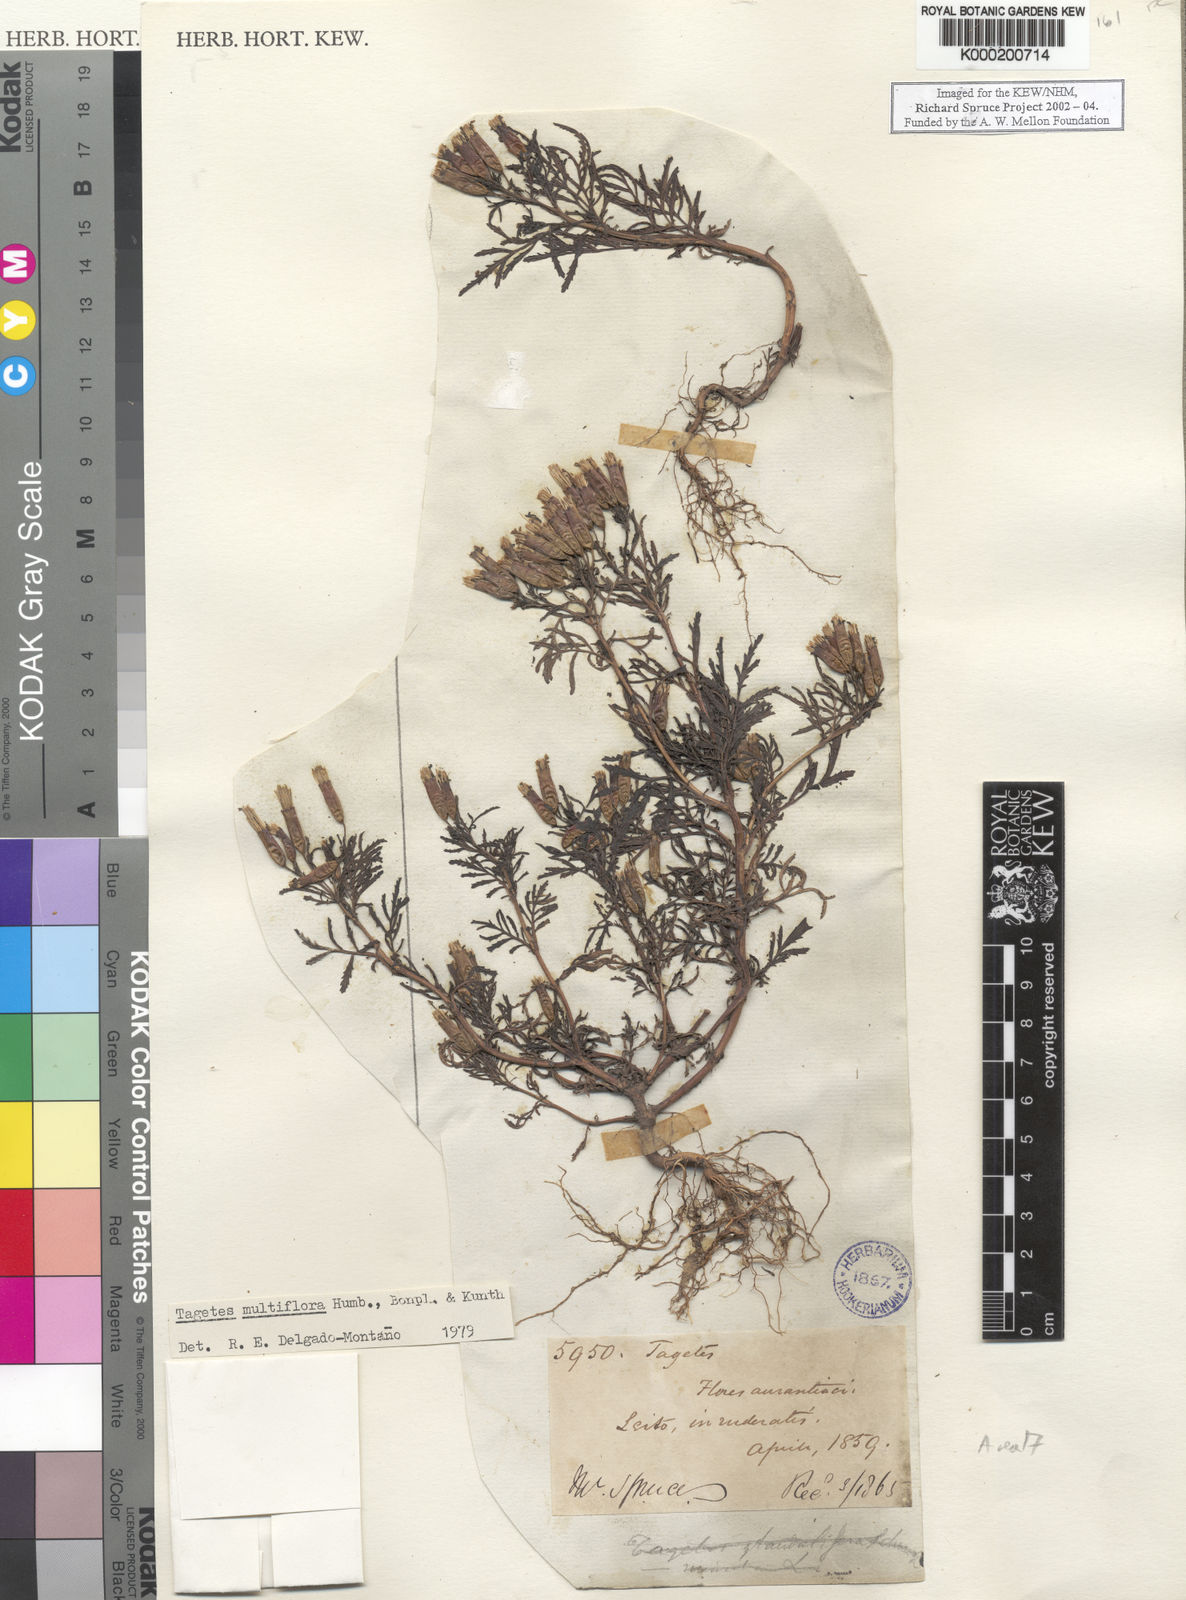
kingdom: Plantae
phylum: Tracheophyta
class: Magnoliopsida
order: Asterales
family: Asteraceae
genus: Tagetes
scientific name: Tagetes
